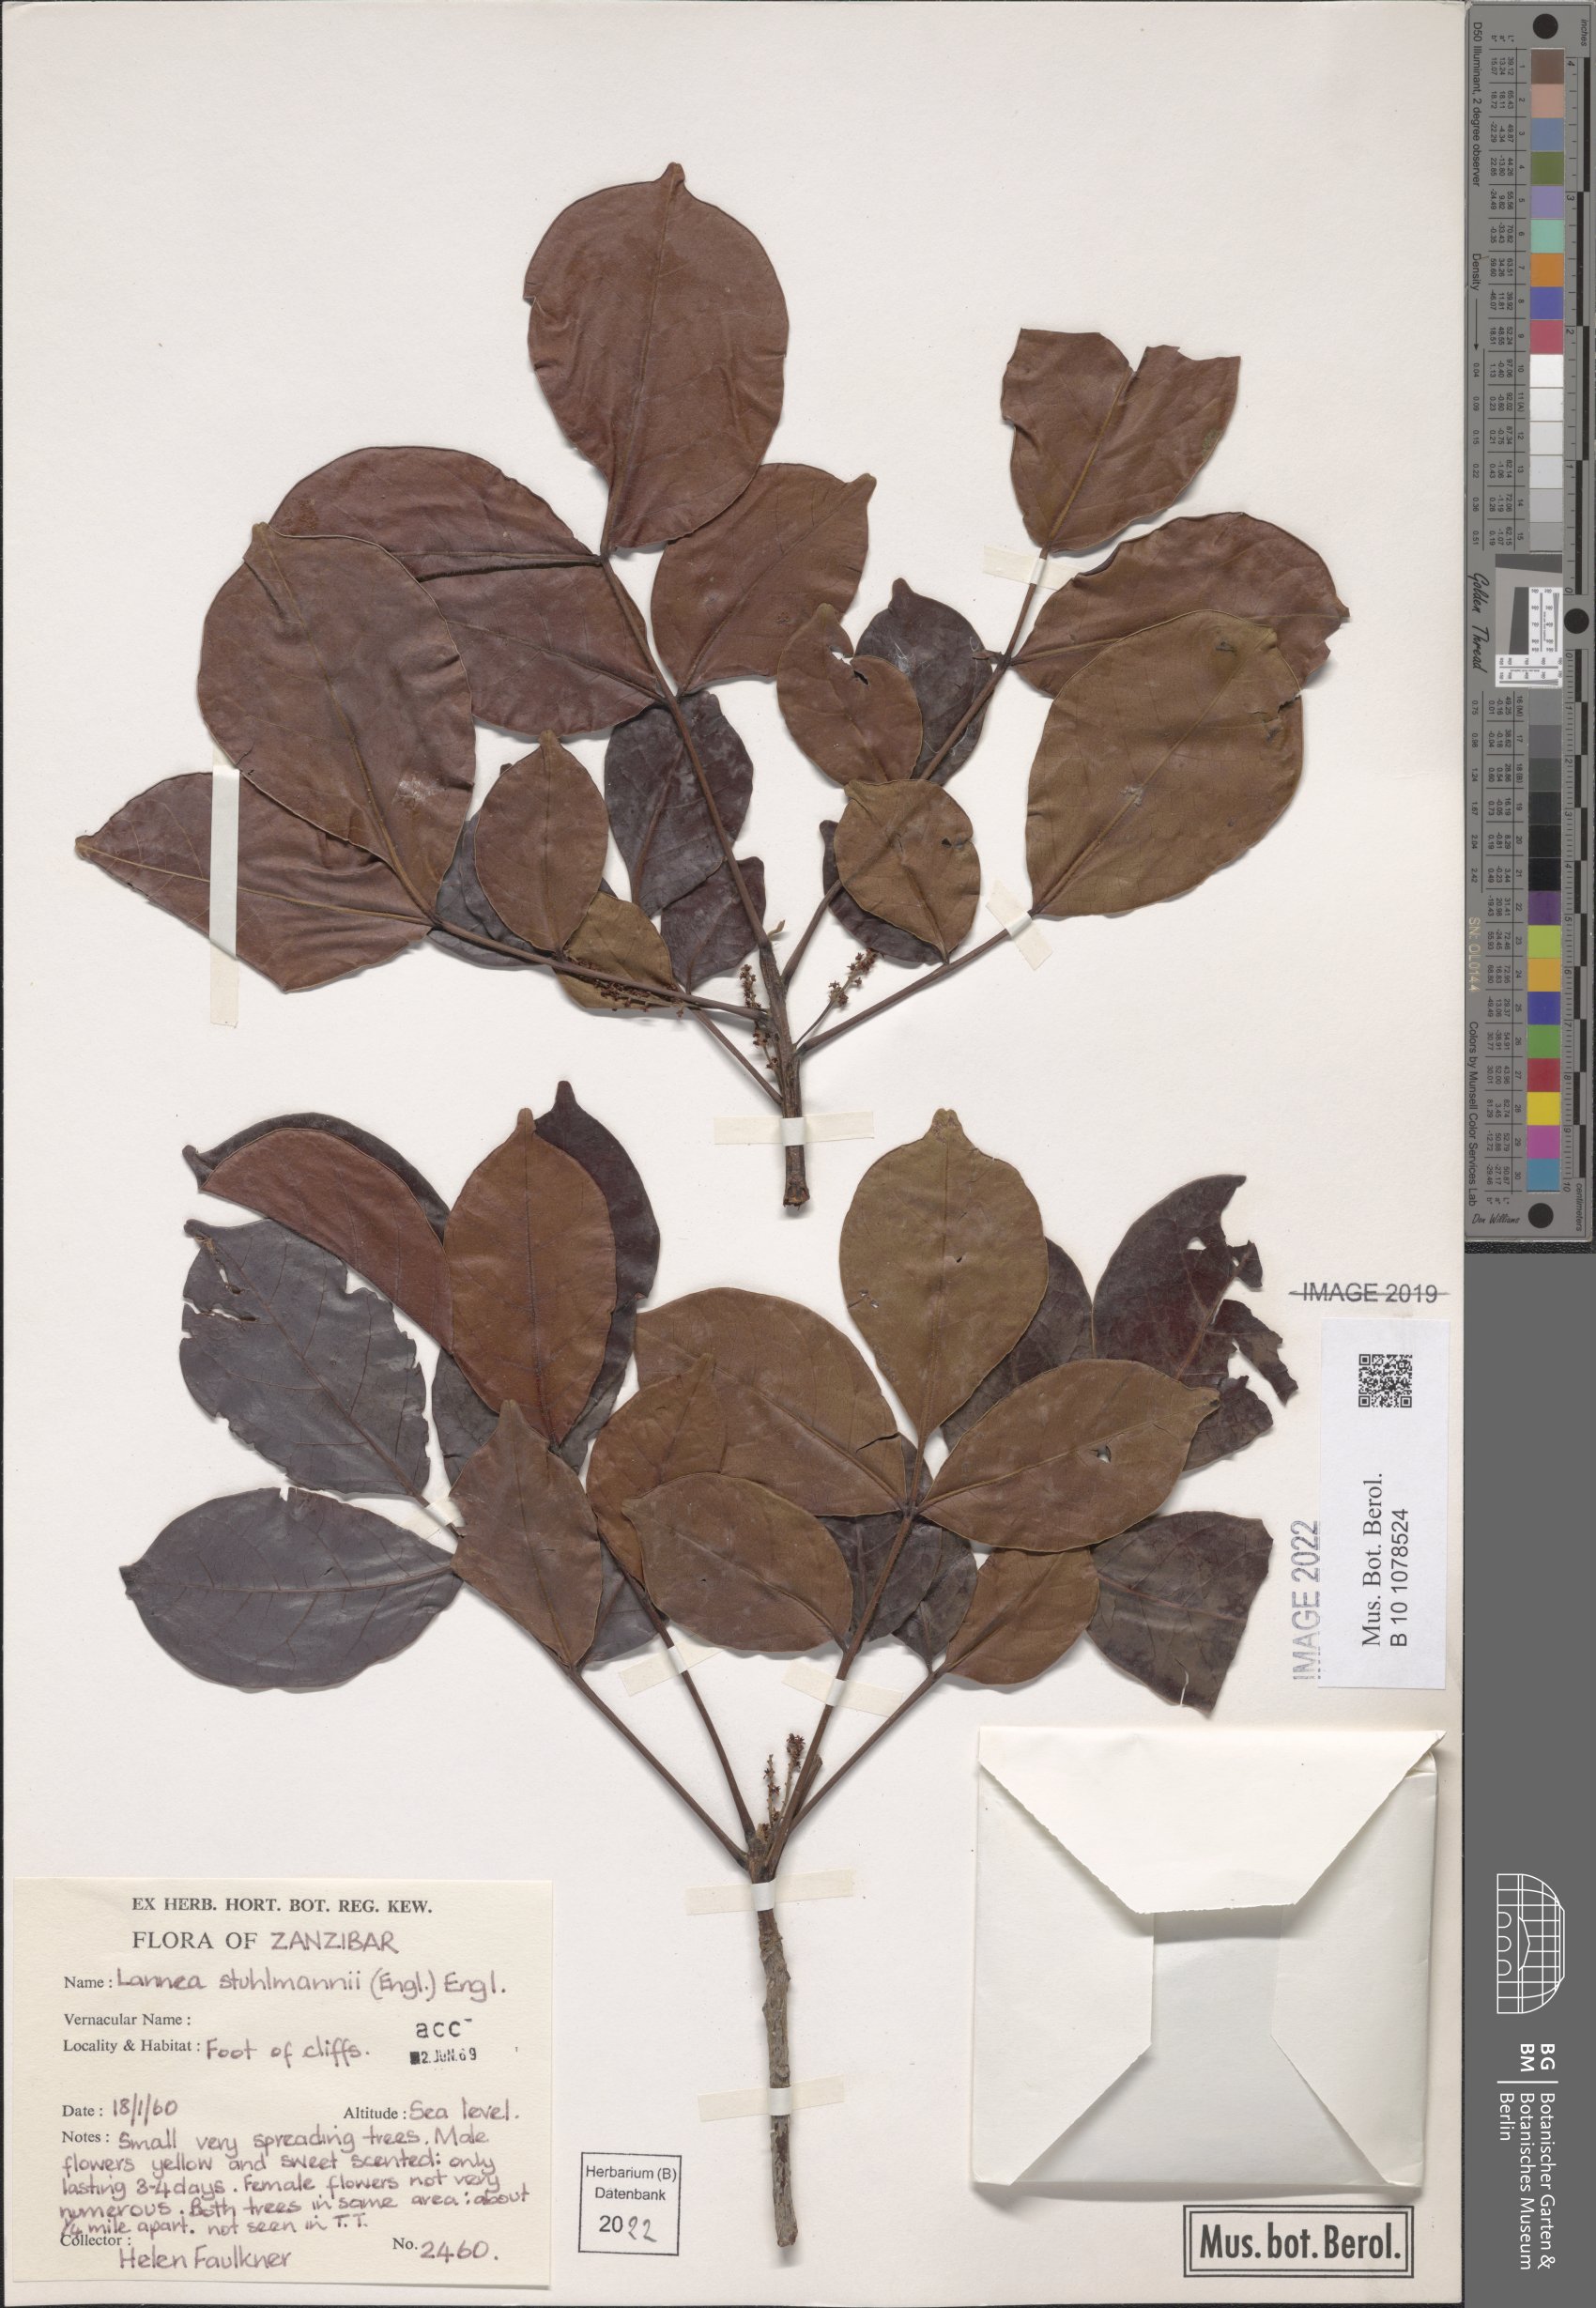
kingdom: Plantae
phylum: Tracheophyta
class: Magnoliopsida
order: Sapindales
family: Anacardiaceae
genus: Lannea
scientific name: Lannea schweinfurthii
